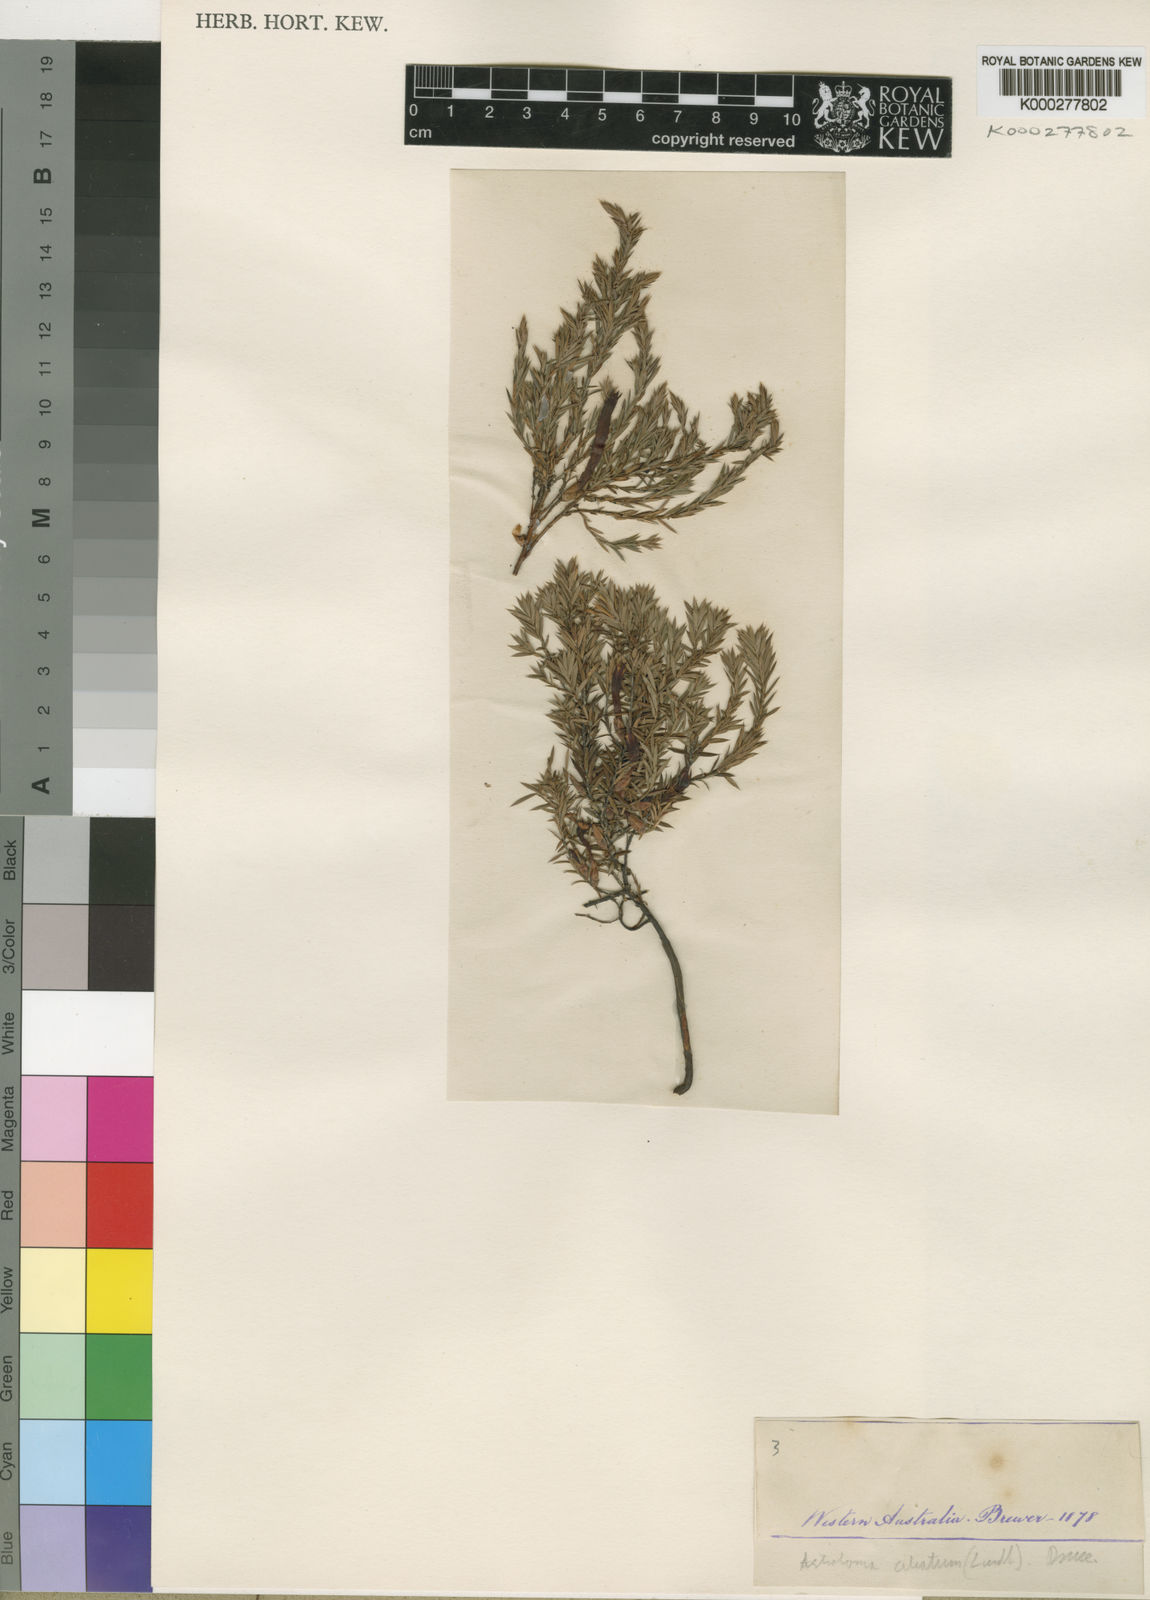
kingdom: Plantae
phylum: Tracheophyta
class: Magnoliopsida
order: Ericales
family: Ericaceae
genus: Styphelia
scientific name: Styphelia discolor
